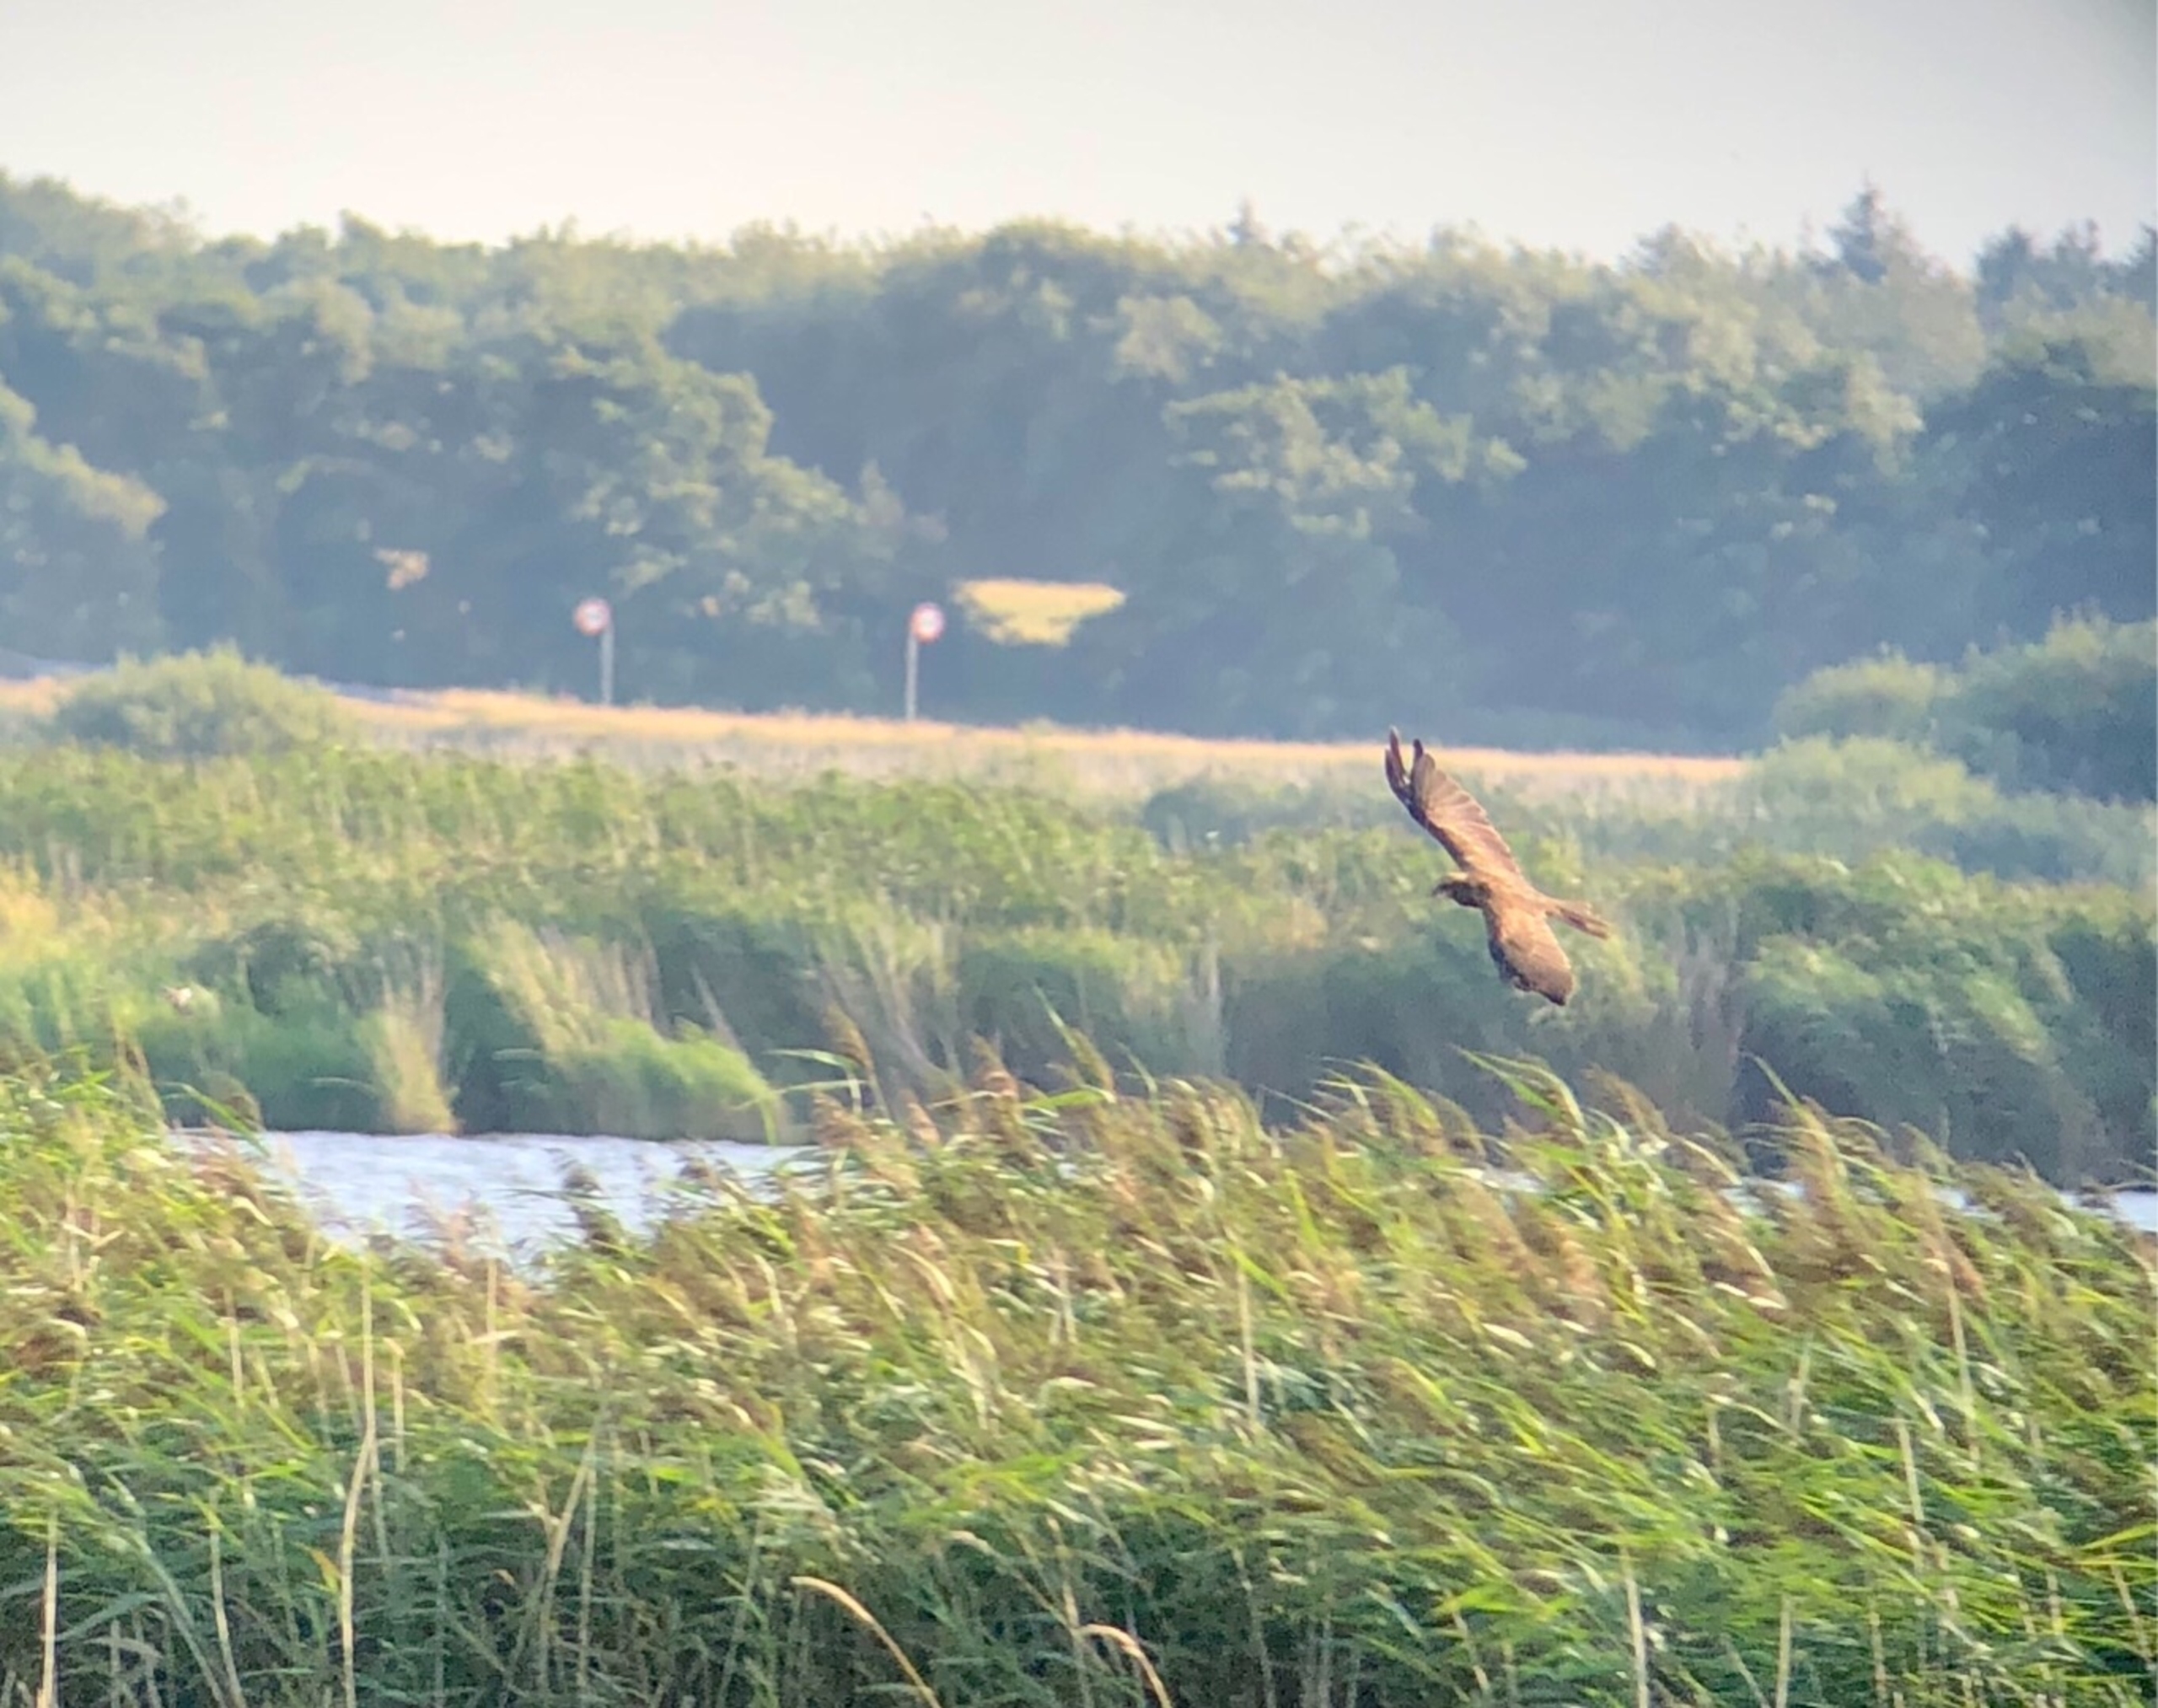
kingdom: Animalia
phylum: Chordata
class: Aves
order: Accipitriformes
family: Accipitridae
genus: Circus
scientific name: Circus aeruginosus
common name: Rørhøg
